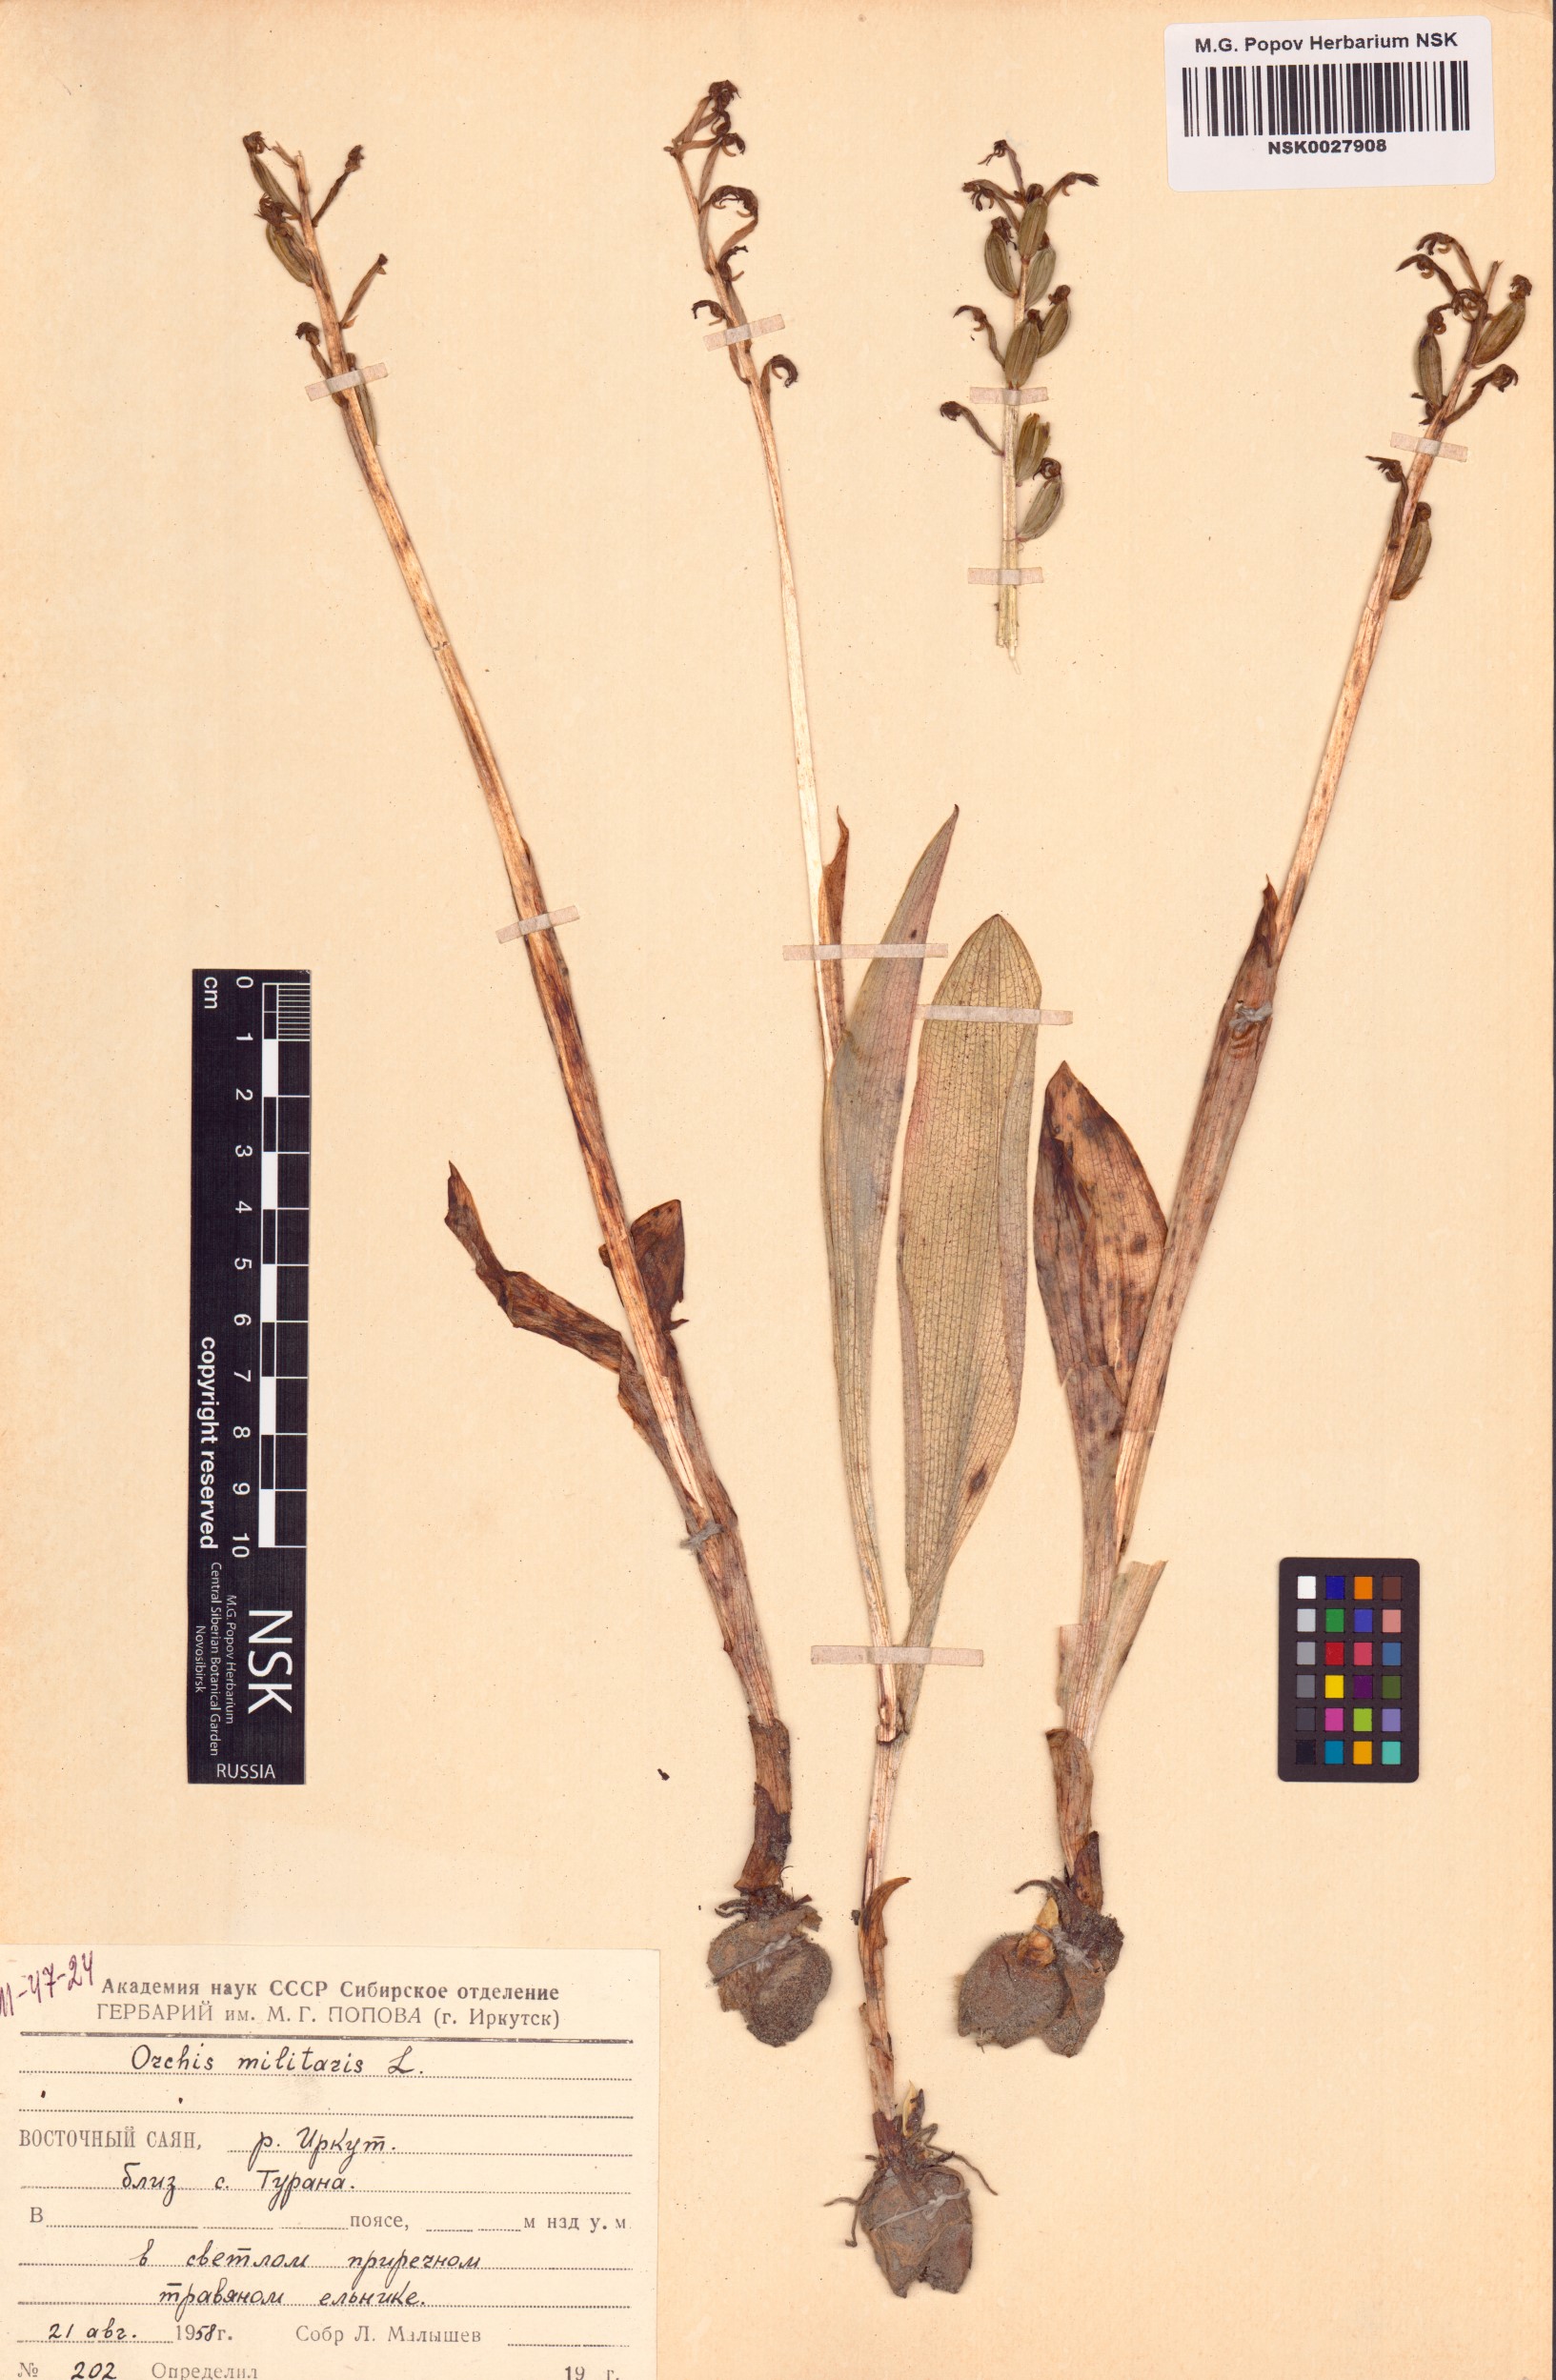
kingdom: Plantae
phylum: Tracheophyta
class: Liliopsida
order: Asparagales
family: Orchidaceae
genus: Orchis
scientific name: Orchis militaris
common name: Military orchid
